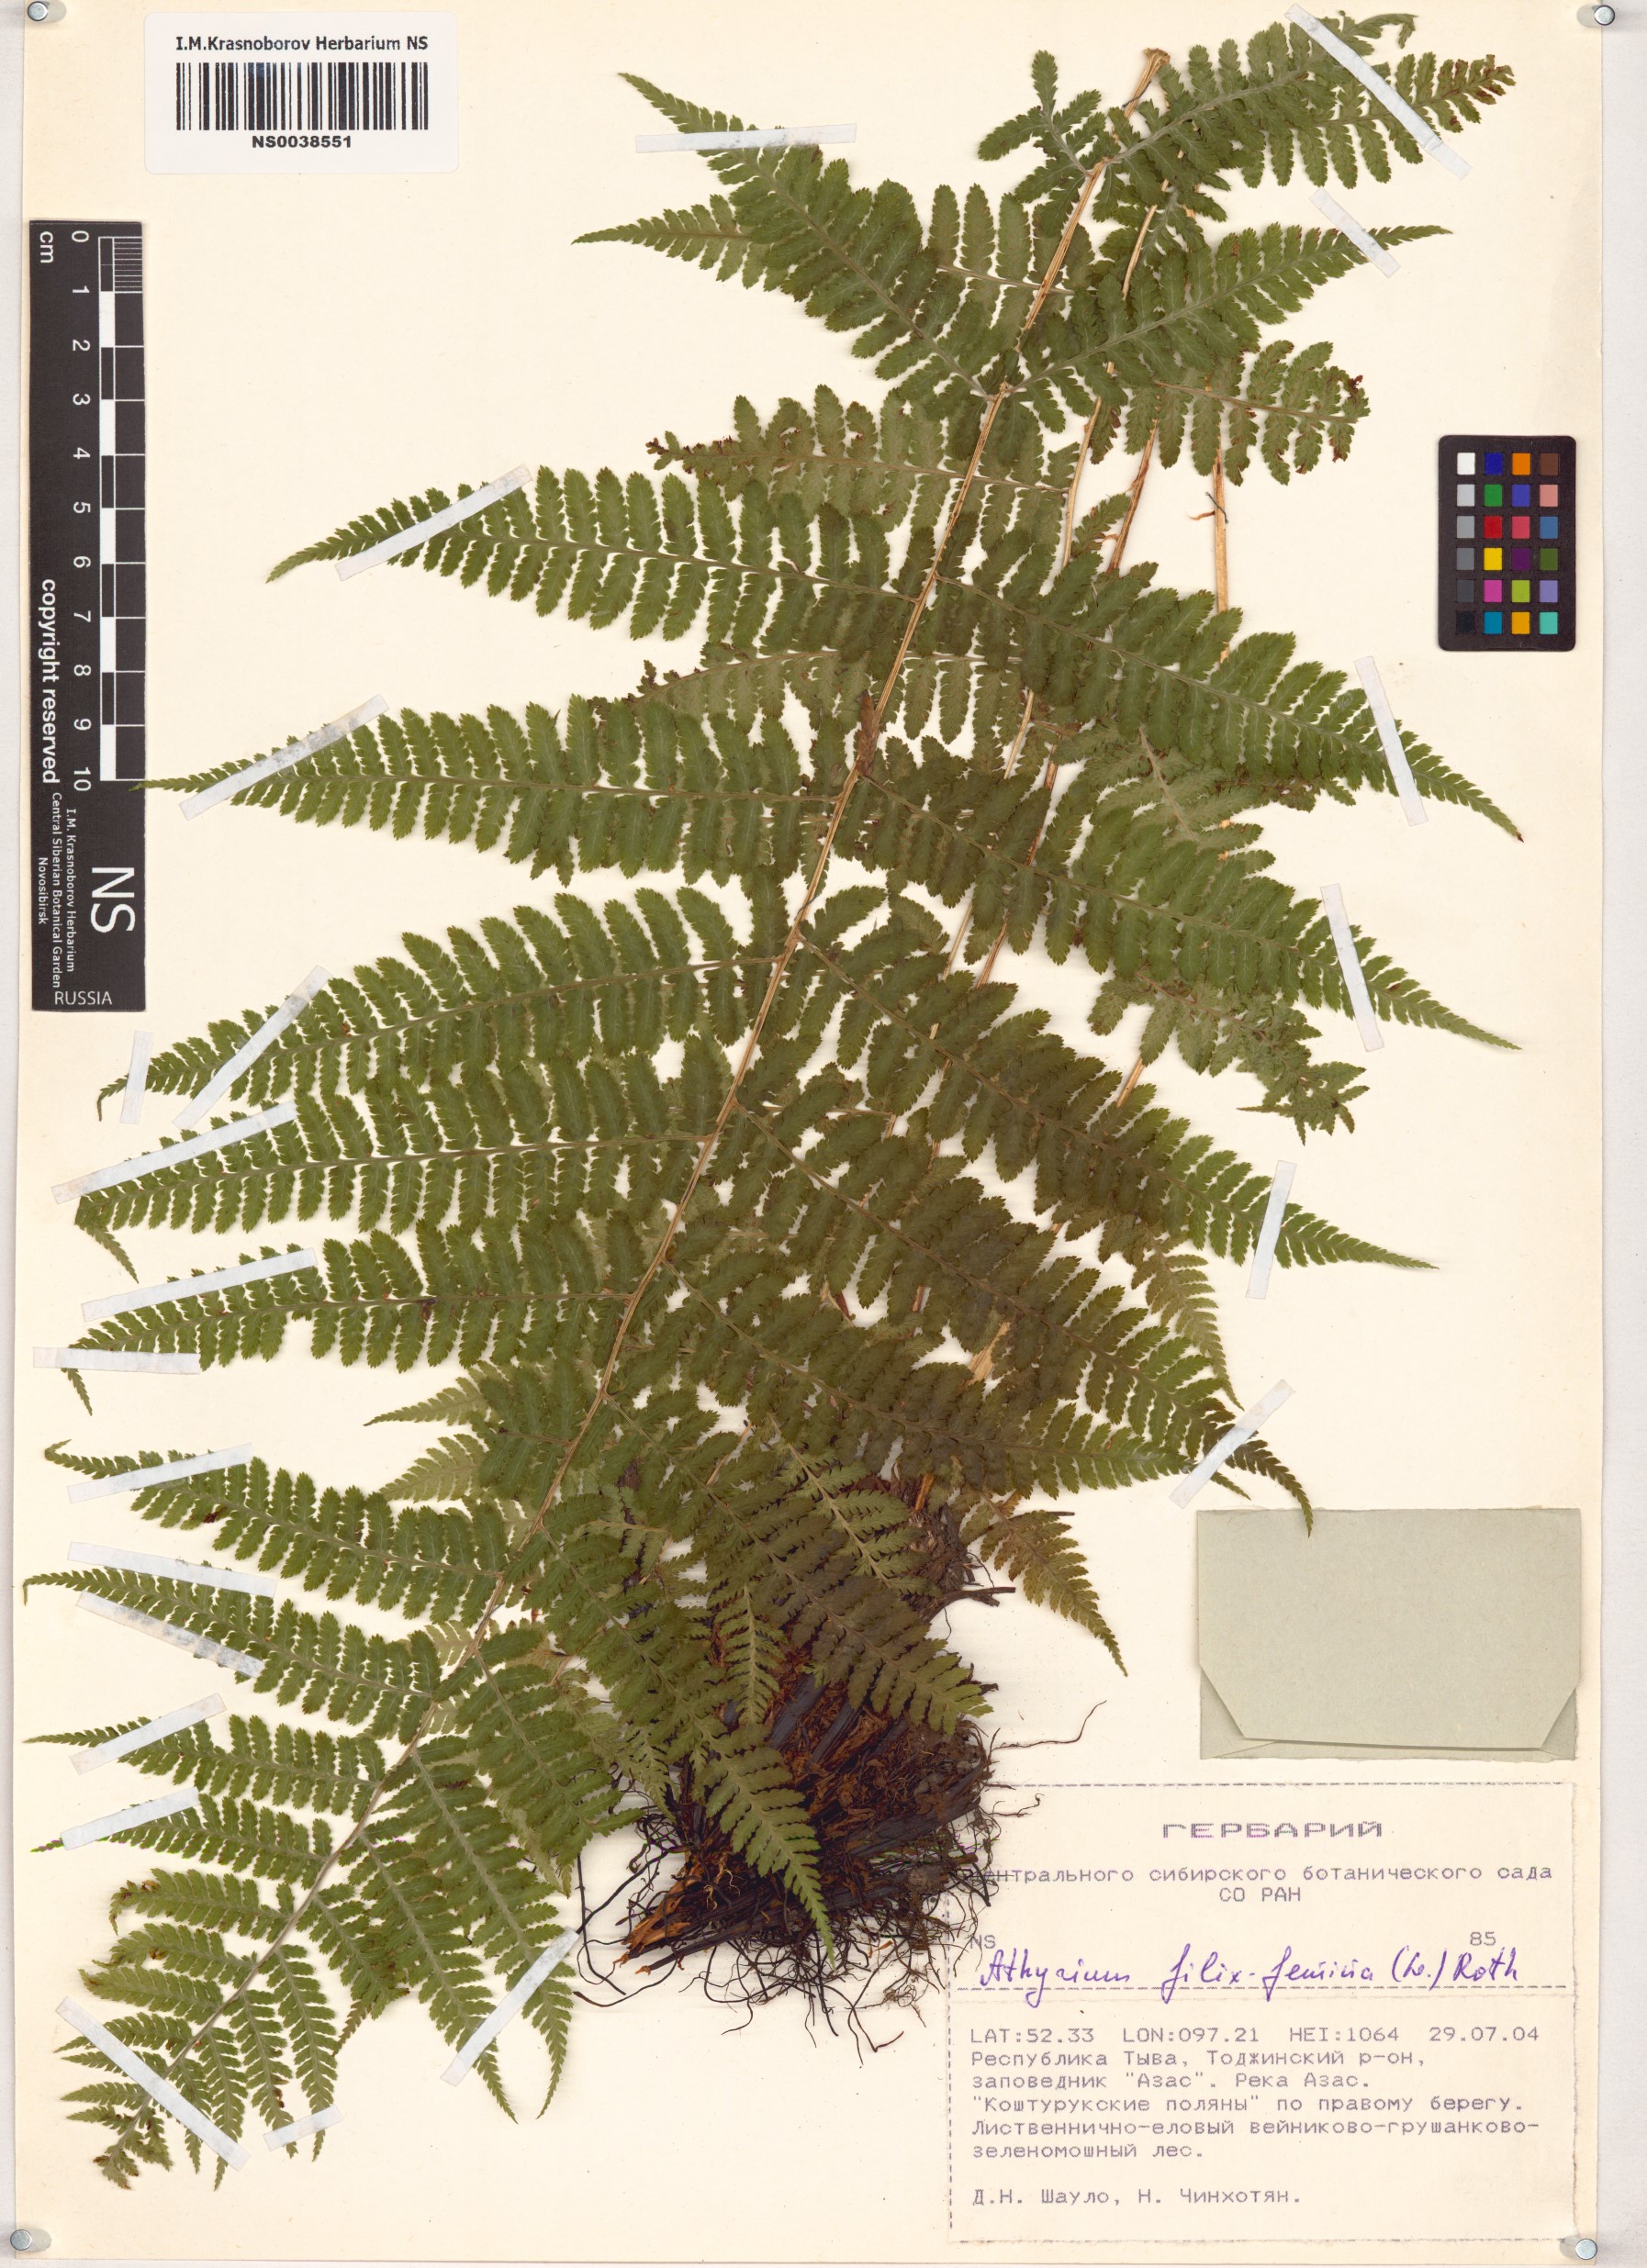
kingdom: Plantae
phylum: Tracheophyta
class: Polypodiopsida
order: Polypodiales
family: Athyriaceae
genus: Athyrium
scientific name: Athyrium filix-femina
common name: Lady fern
